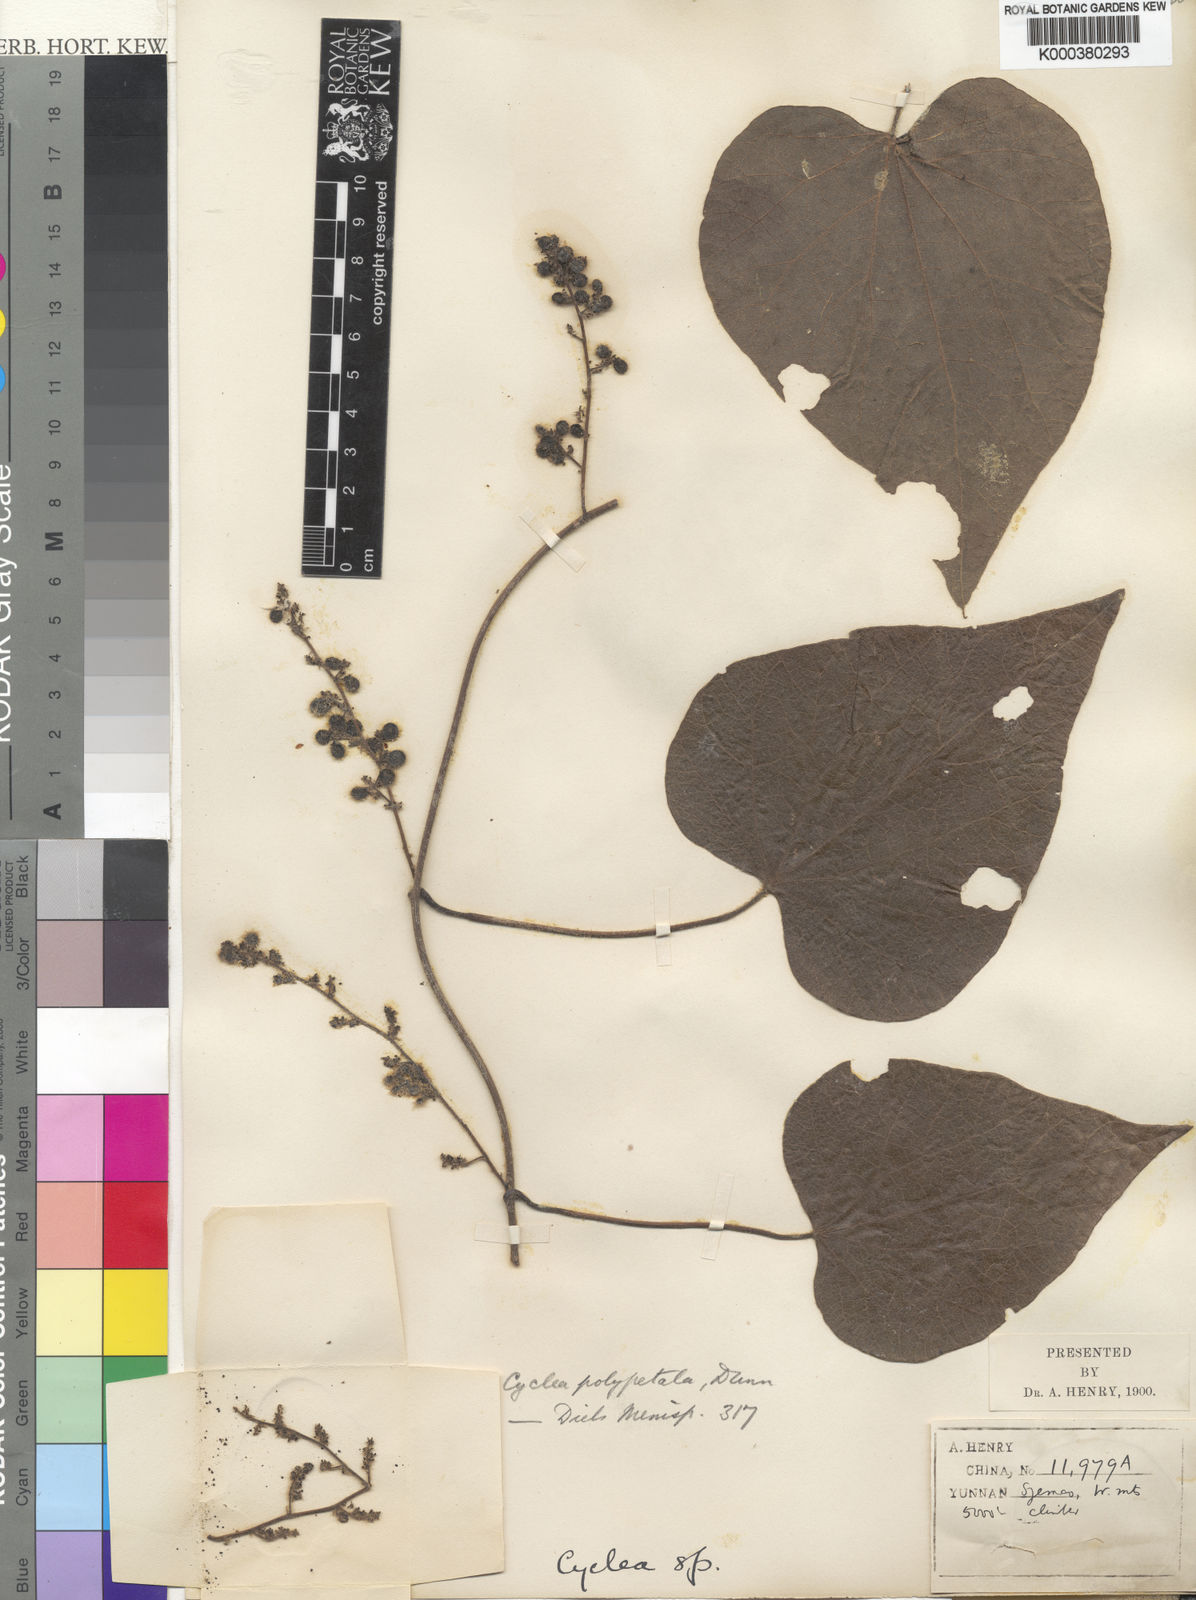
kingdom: Plantae
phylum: Tracheophyta
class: Magnoliopsida
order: Ranunculales
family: Menispermaceae
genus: Cyclea
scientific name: Cyclea polypetala
